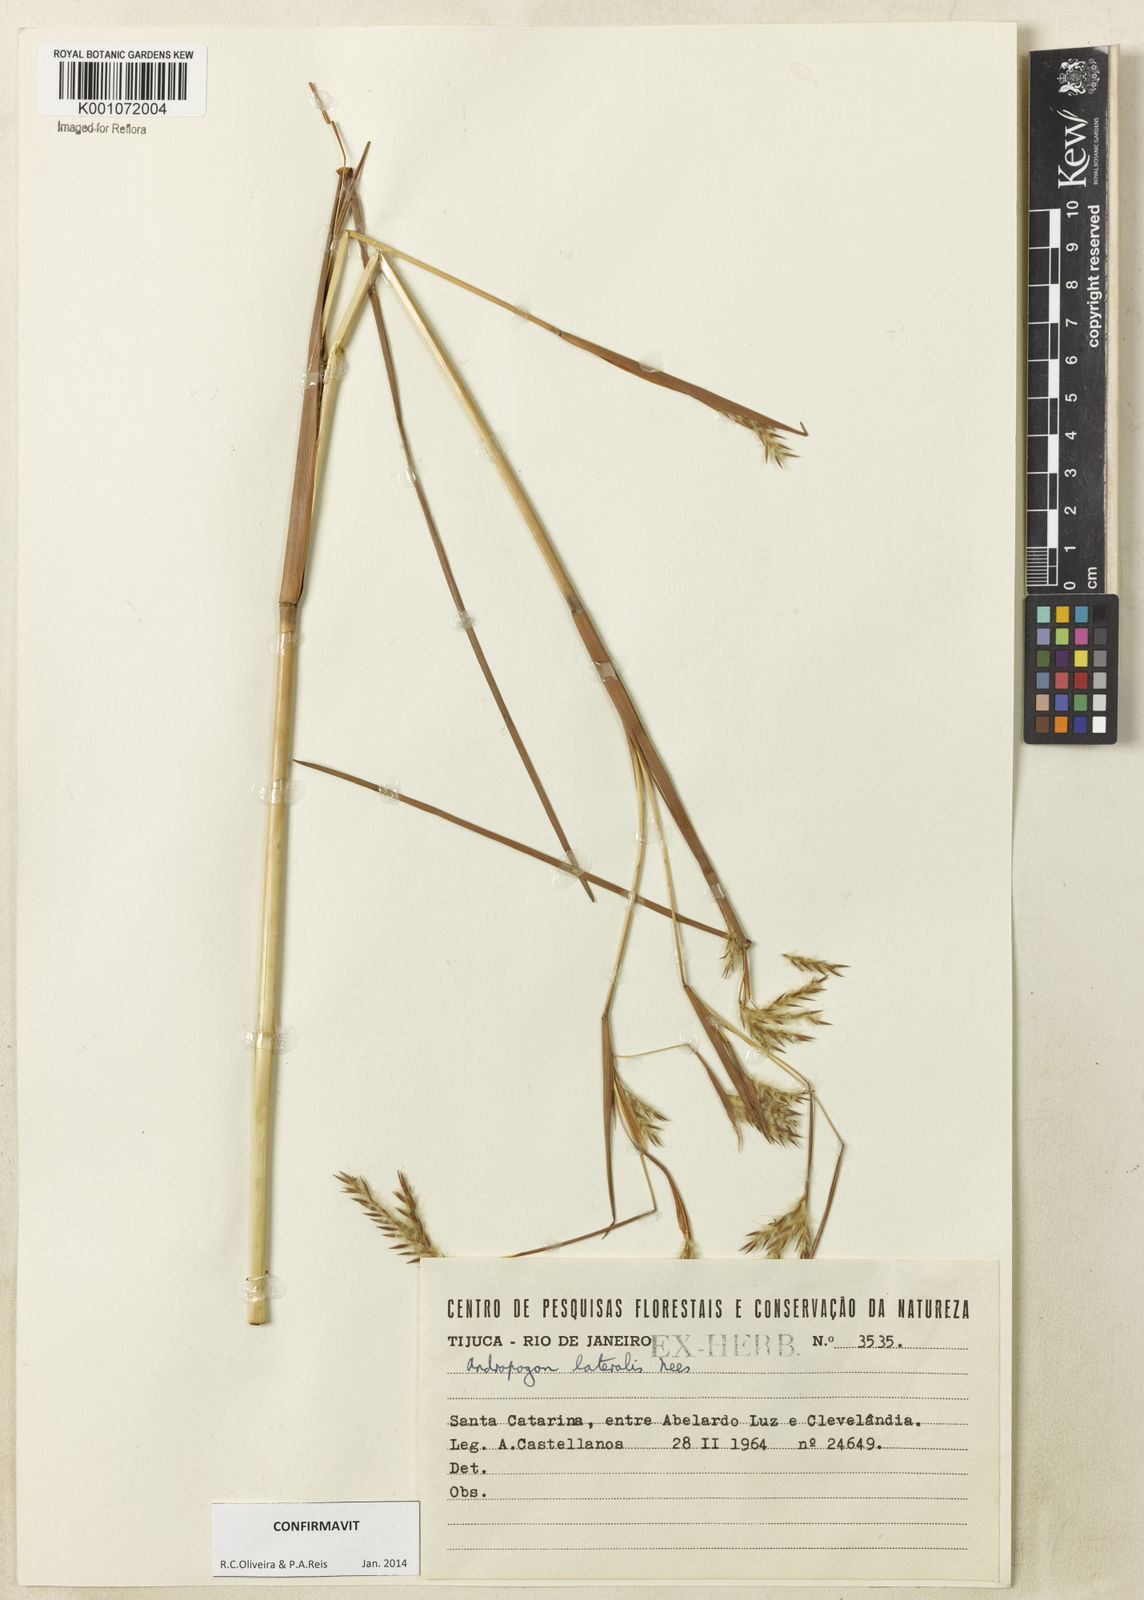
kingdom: Plantae
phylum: Tracheophyta
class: Liliopsida
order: Poales
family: Poaceae
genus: Andropogon
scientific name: Andropogon lateralis
